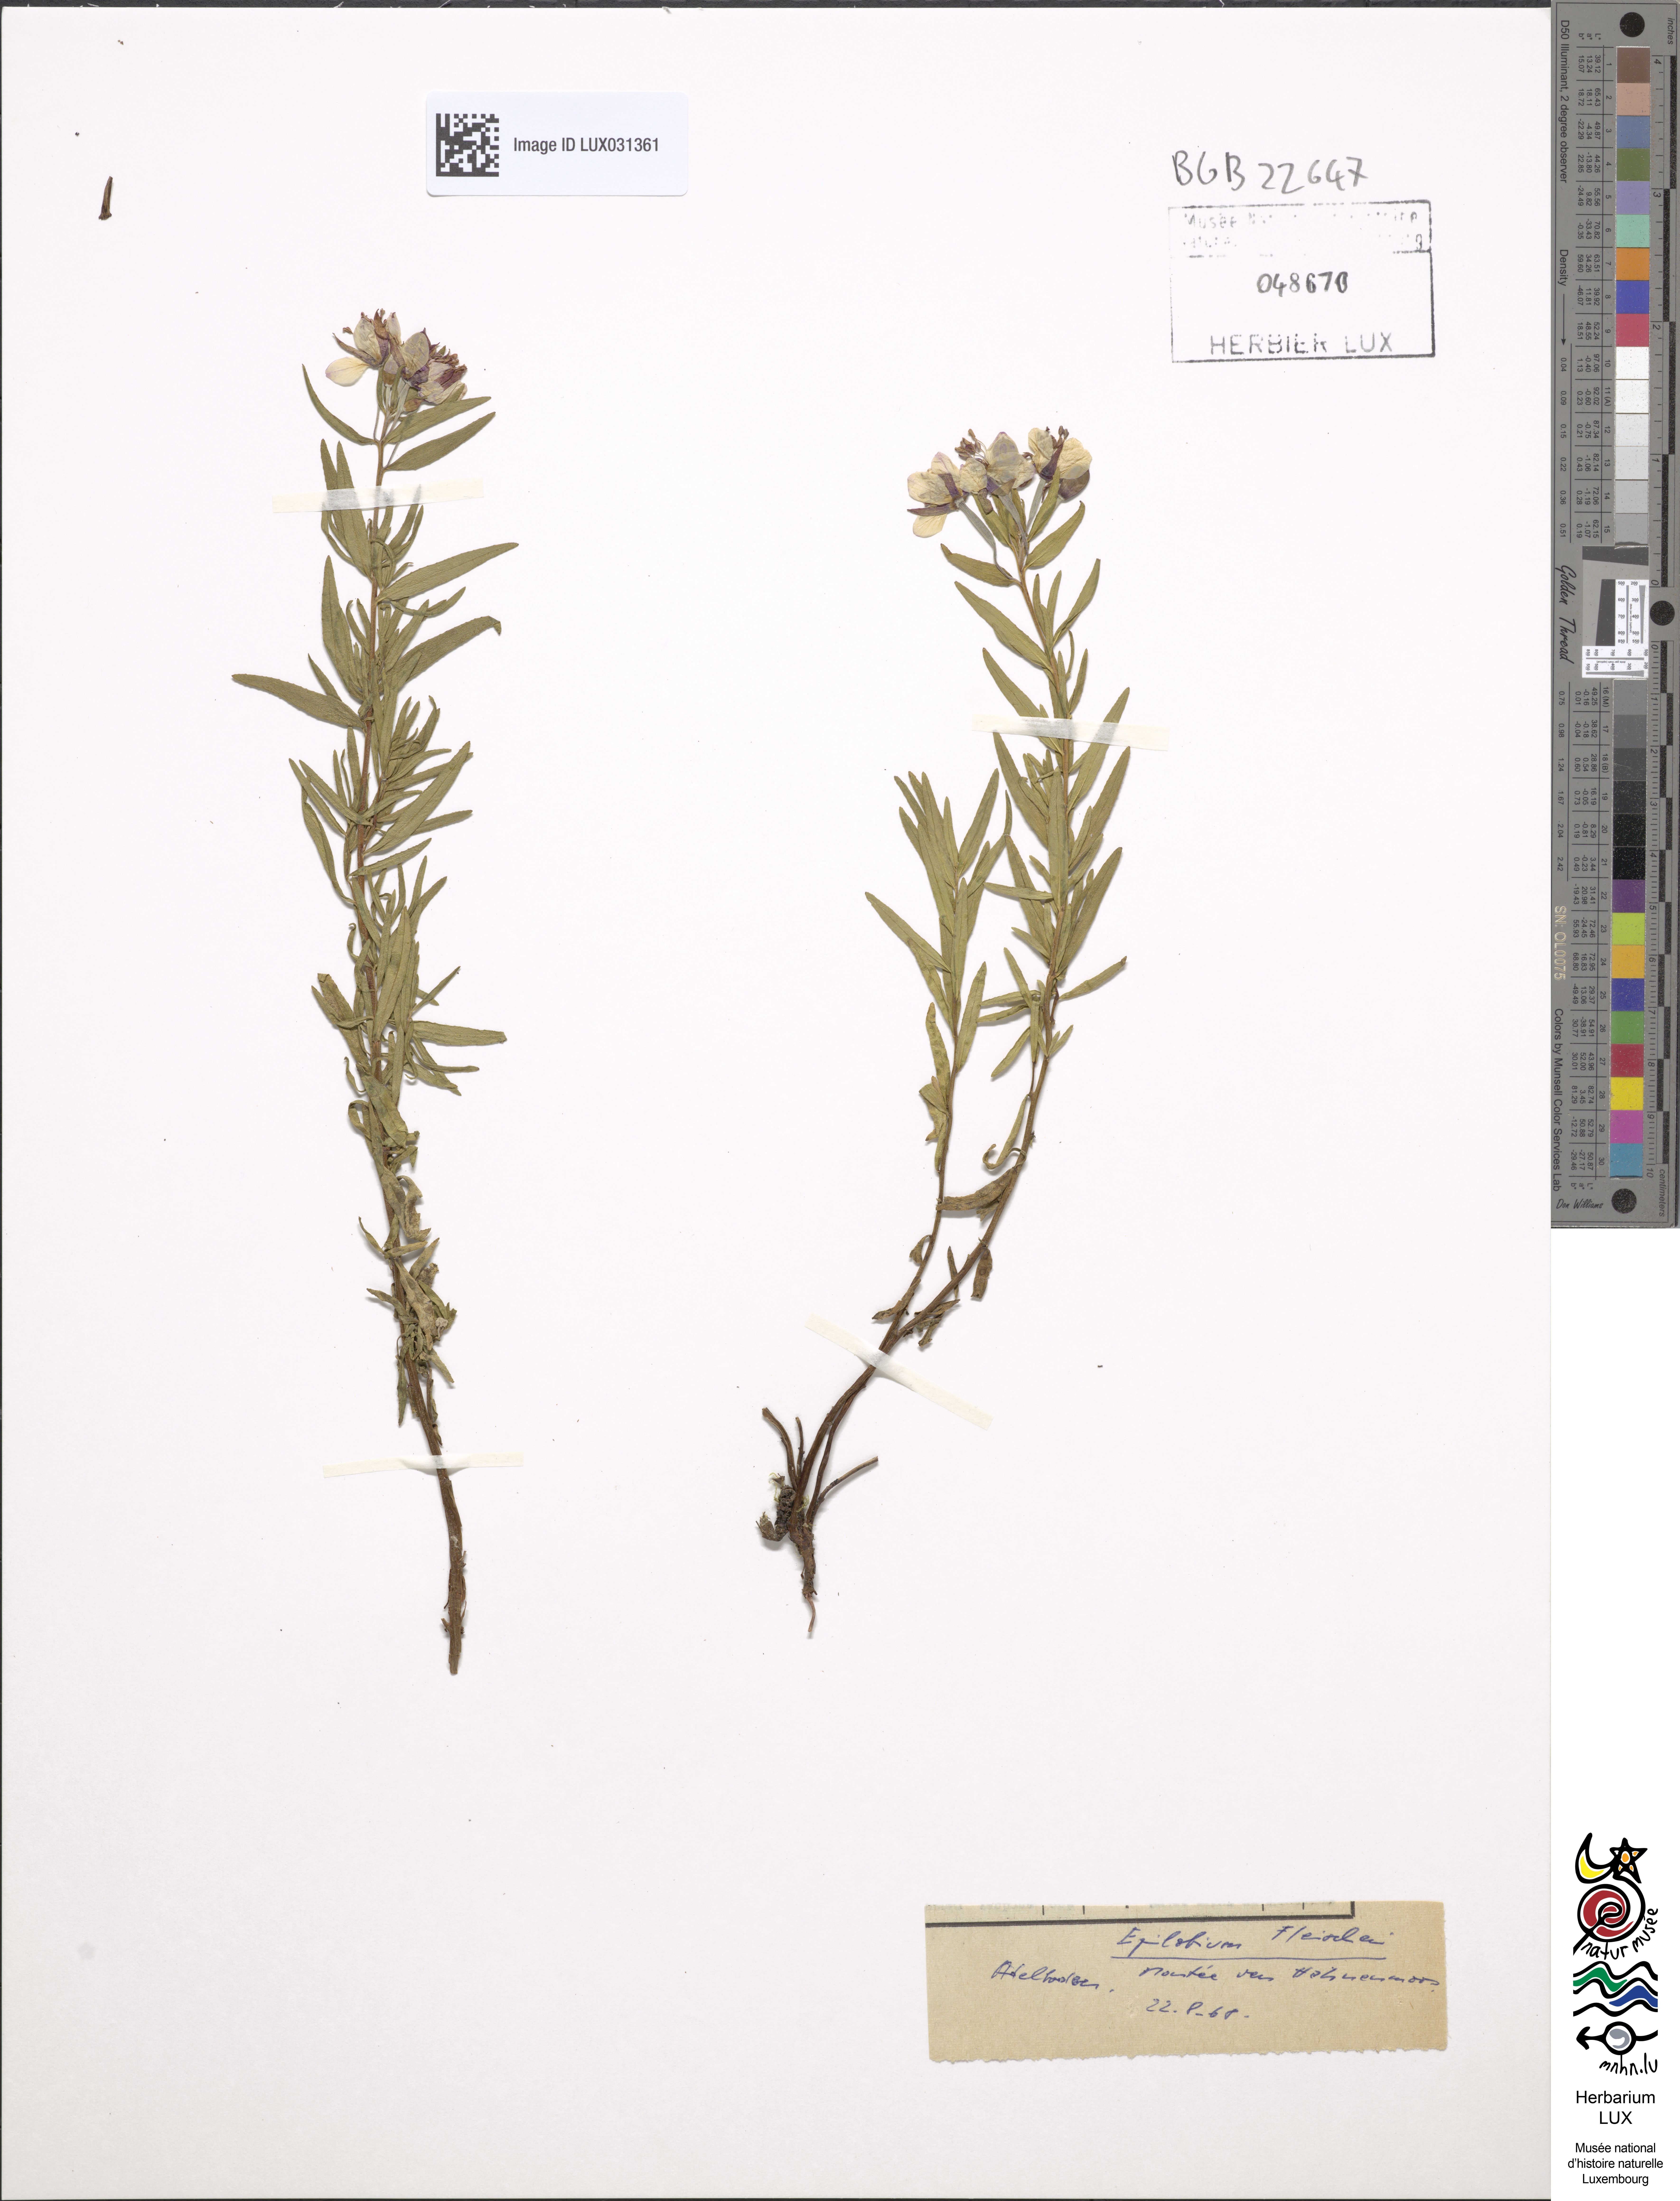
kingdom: Plantae
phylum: Tracheophyta
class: Magnoliopsida
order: Myrtales
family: Onagraceae
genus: Chamaenerion
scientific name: Chamaenerion fleischeri
